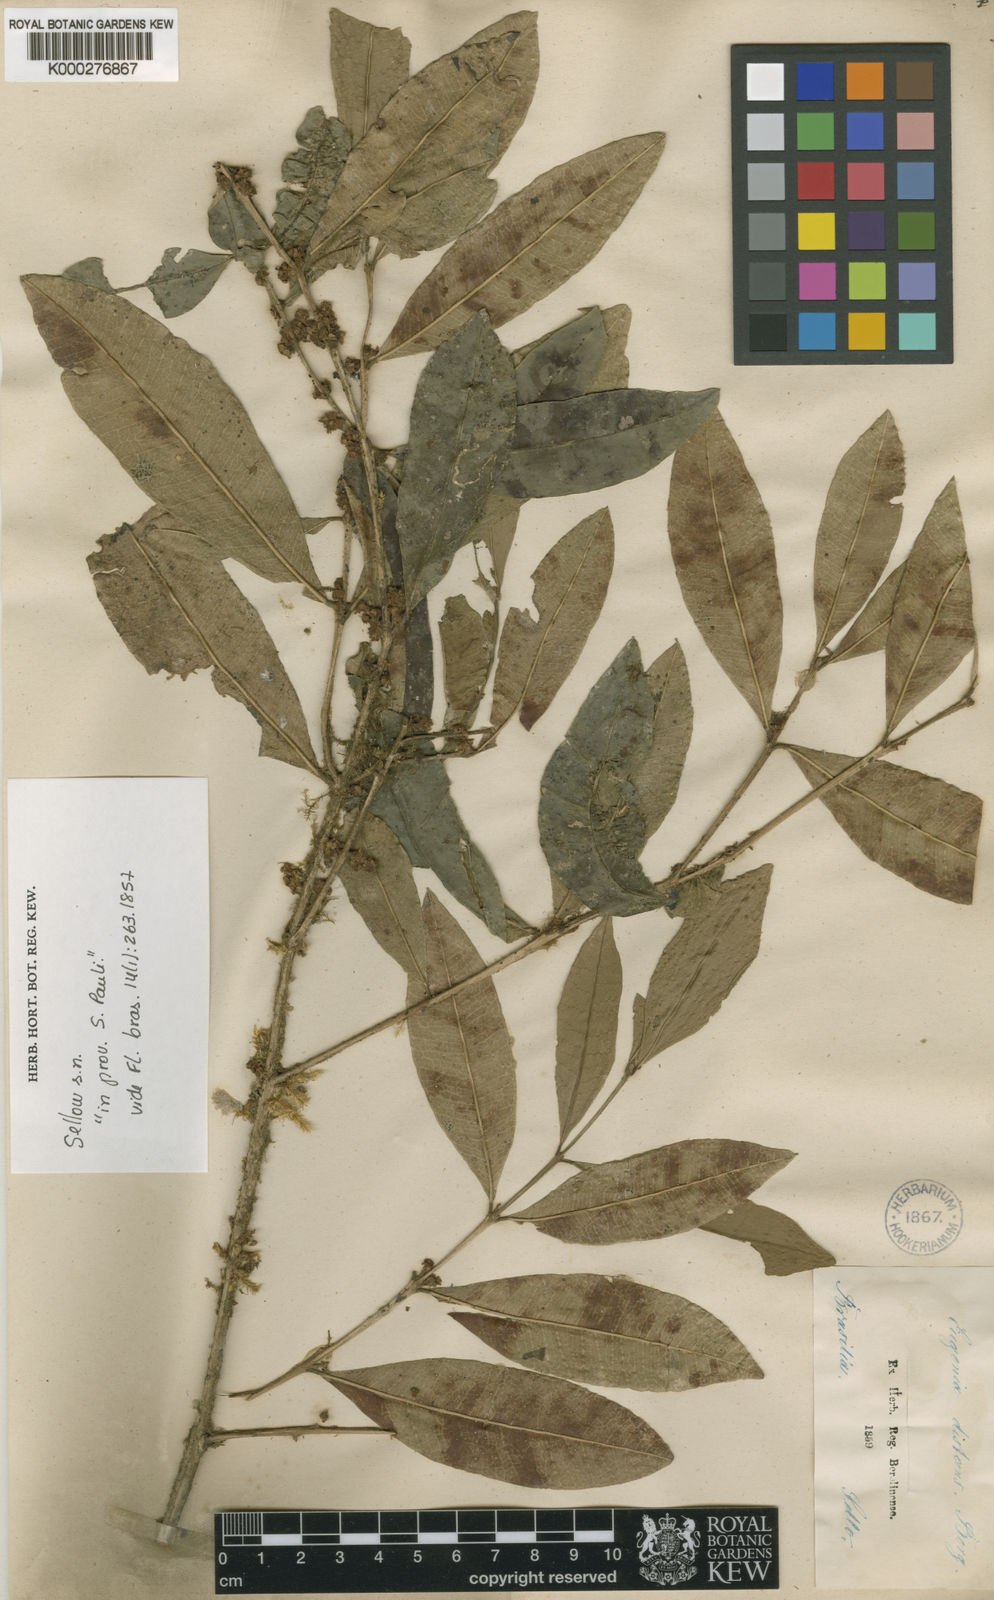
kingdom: Plantae
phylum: Tracheophyta
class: Magnoliopsida
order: Myrtales
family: Myrtaceae
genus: Myrceugenia
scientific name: Myrceugenia campestris
